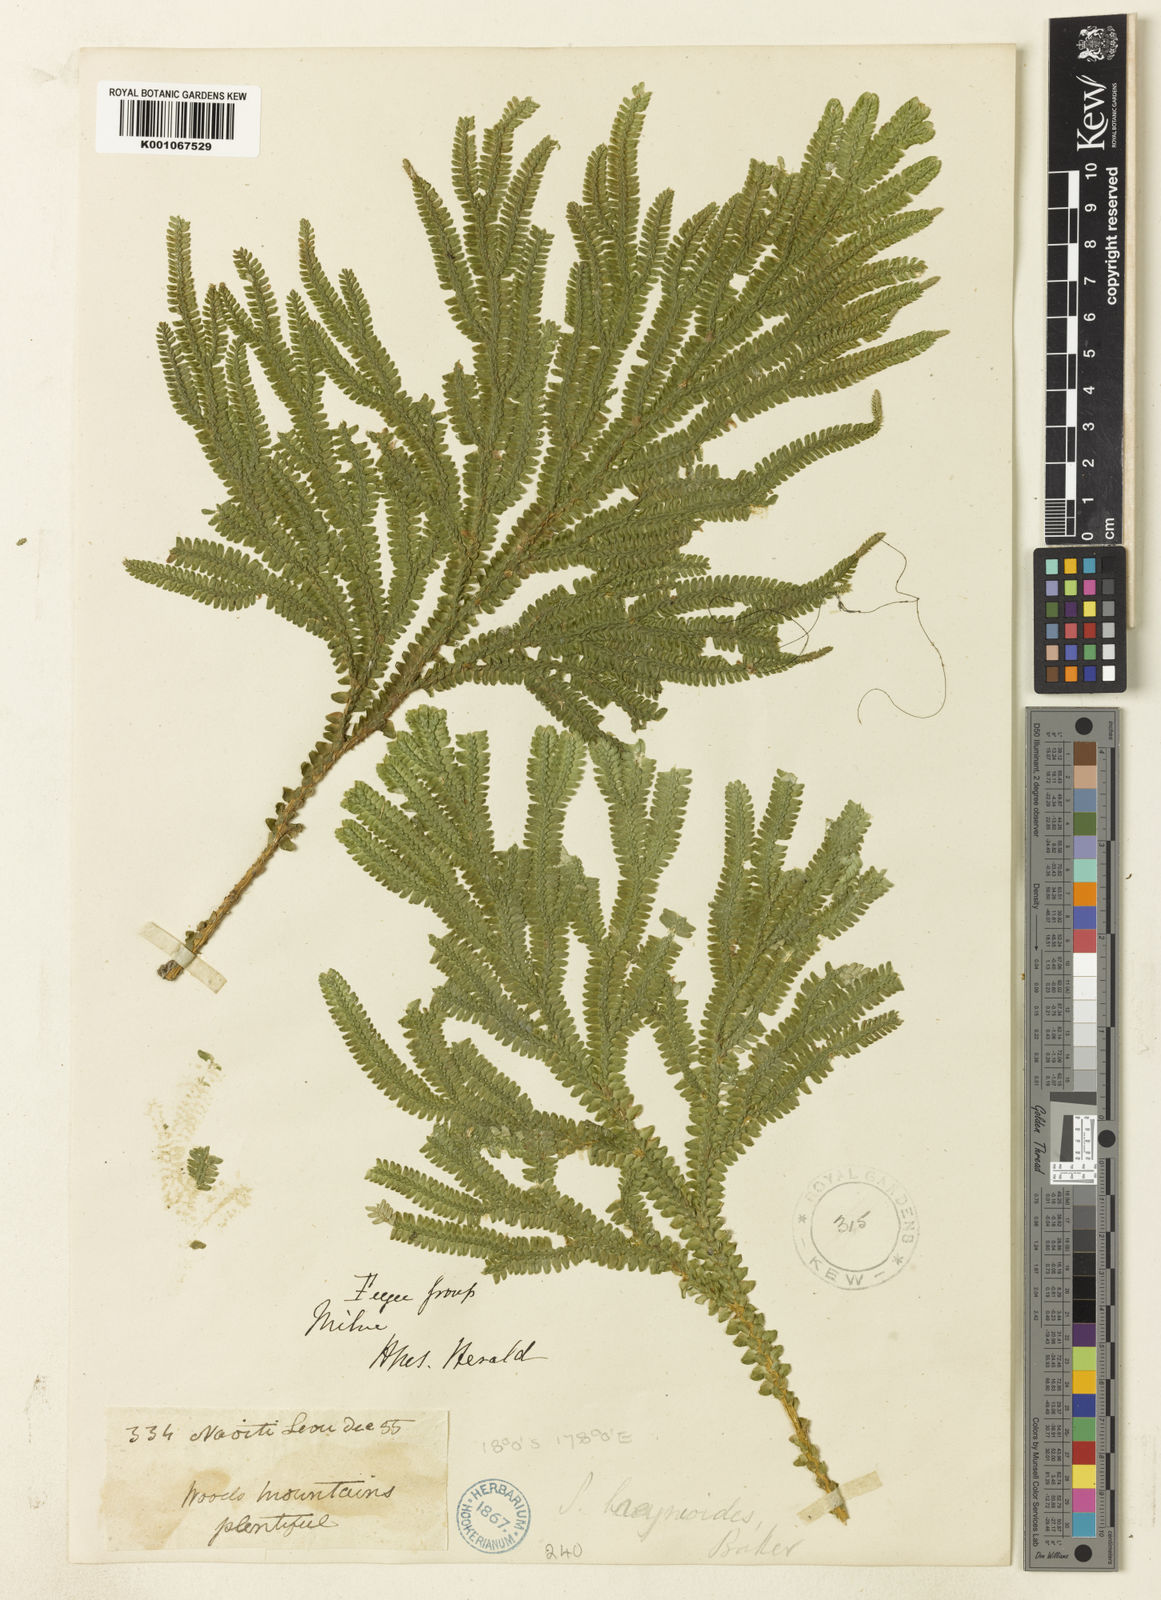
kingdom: Plantae
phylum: Tracheophyta
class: Lycopodiopsida
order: Selaginellales
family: Selaginellaceae
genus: Selaginella
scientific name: Selaginella breynioides
